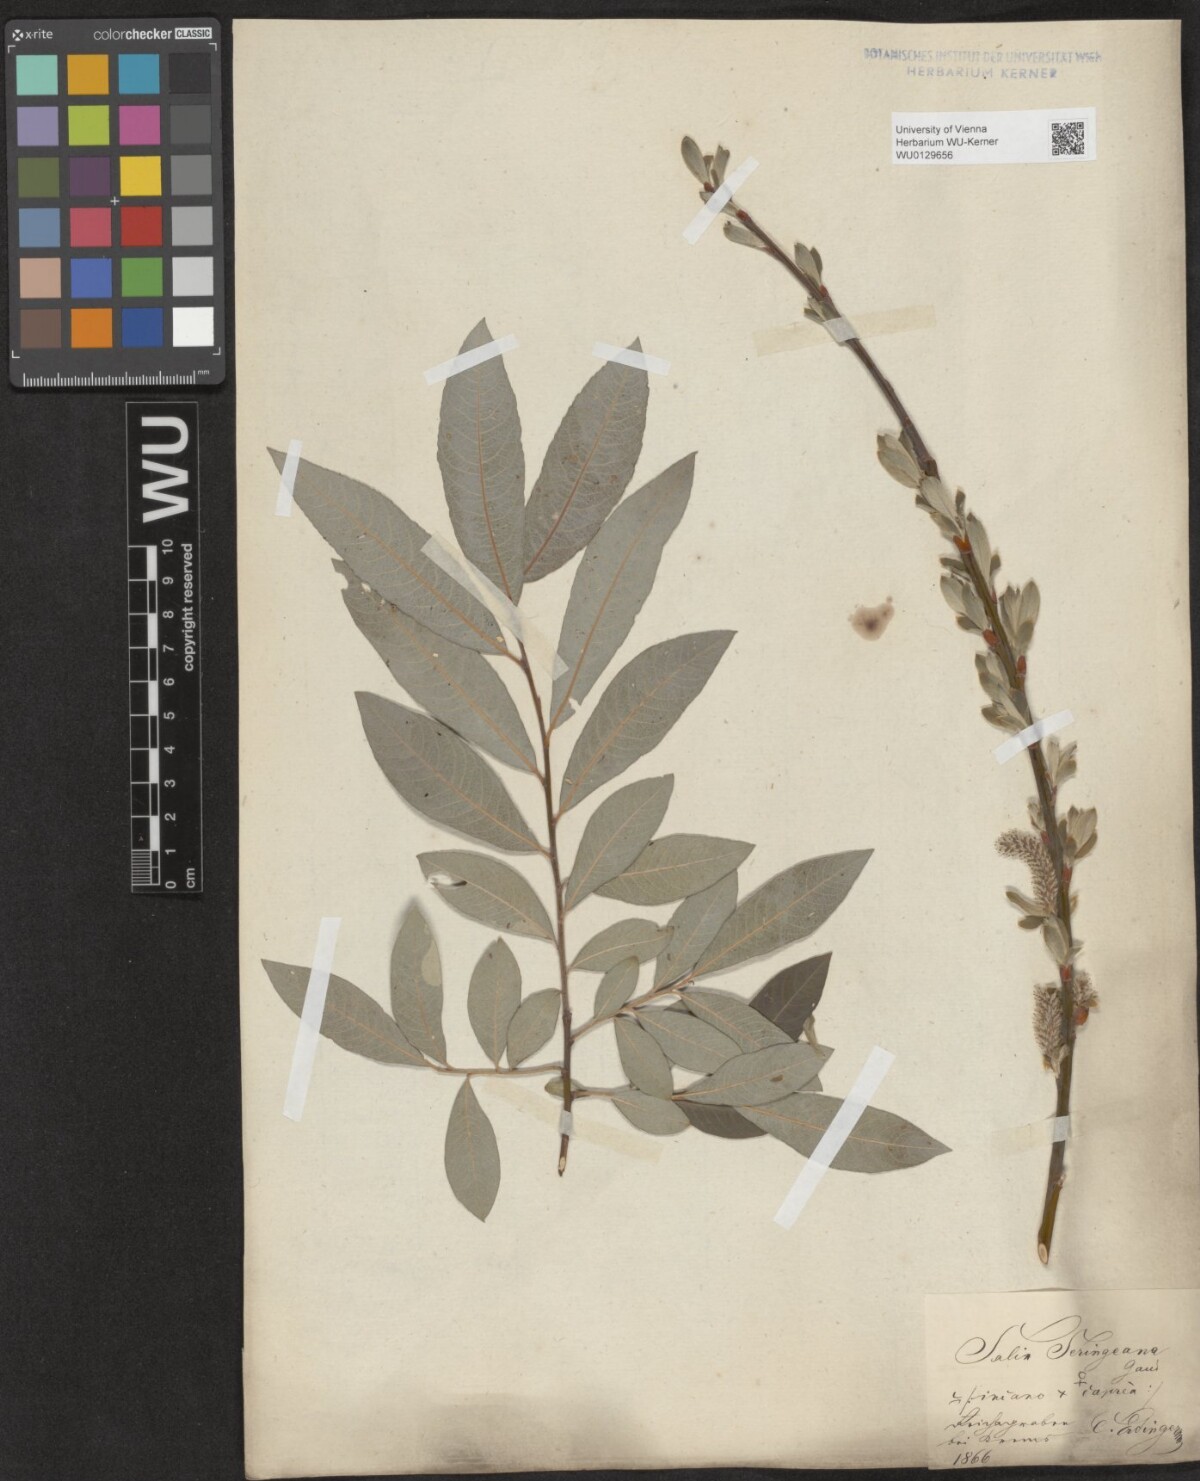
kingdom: Plantae
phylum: Tracheophyta
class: Magnoliopsida
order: Malpighiales
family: Salicaceae
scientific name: Salicaceae
